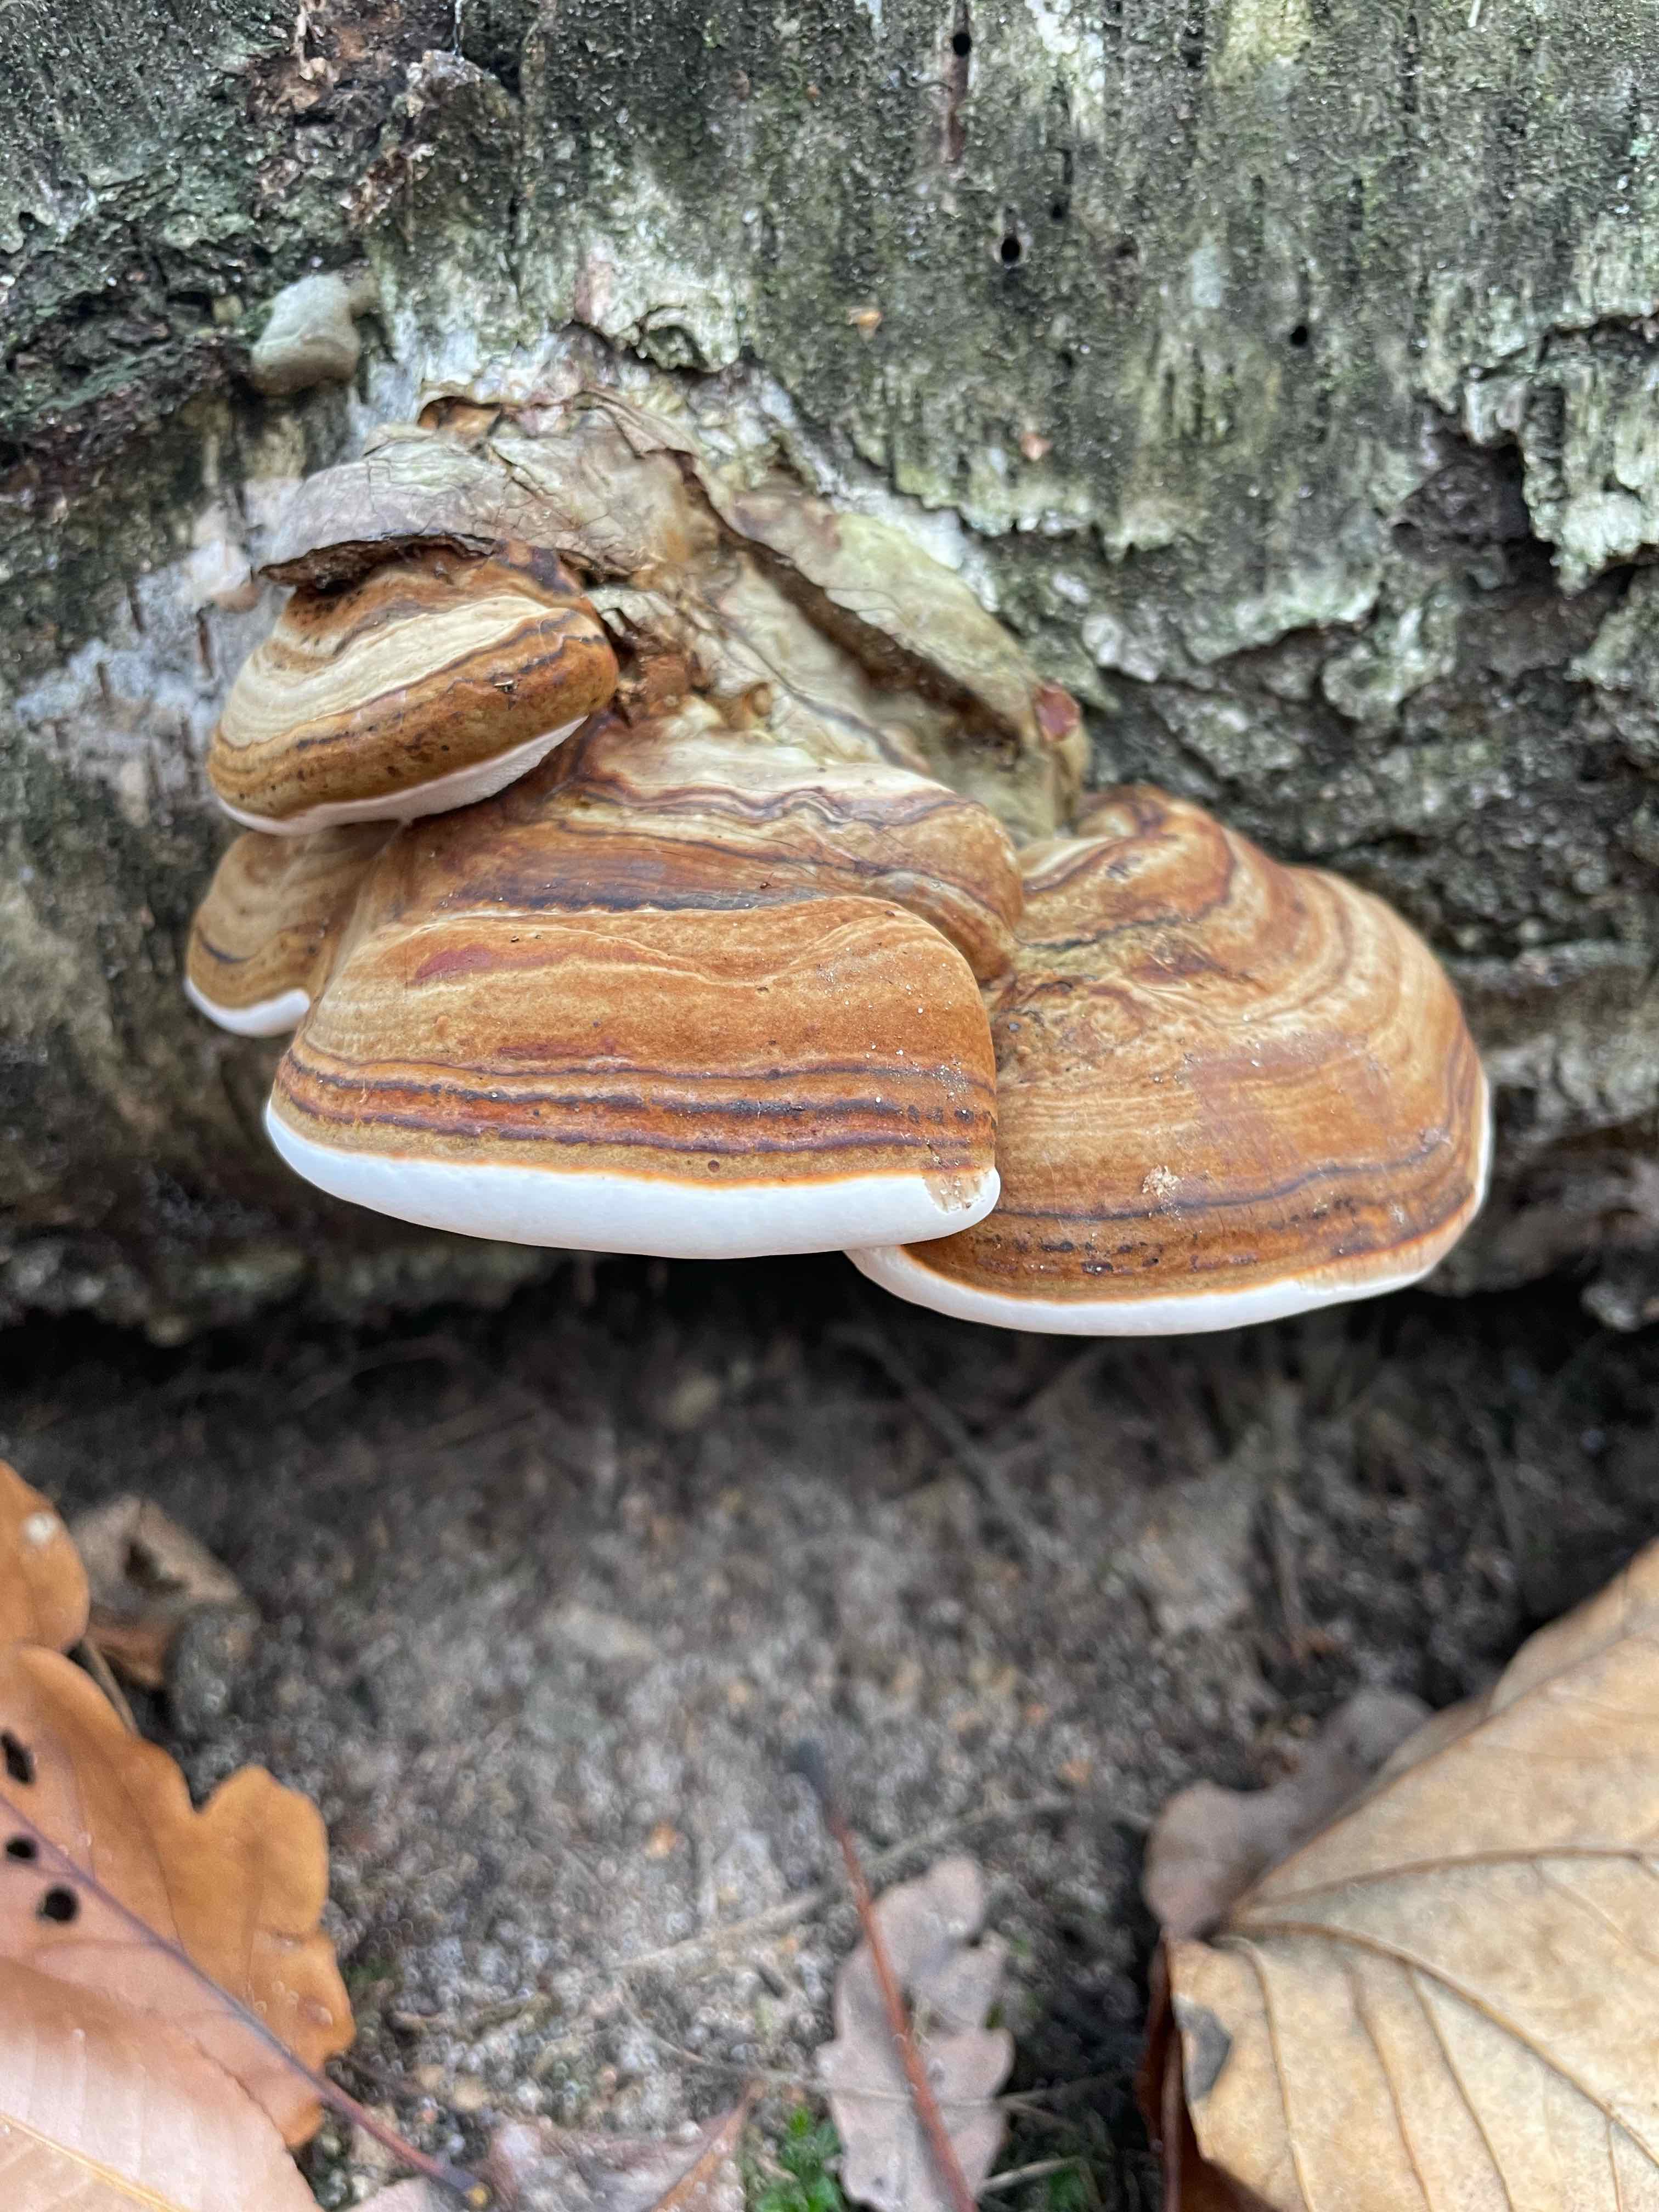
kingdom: Fungi
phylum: Basidiomycota
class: Agaricomycetes
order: Polyporales
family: Polyporaceae
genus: Fomes
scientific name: Fomes fomentarius
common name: tøndersvamp
